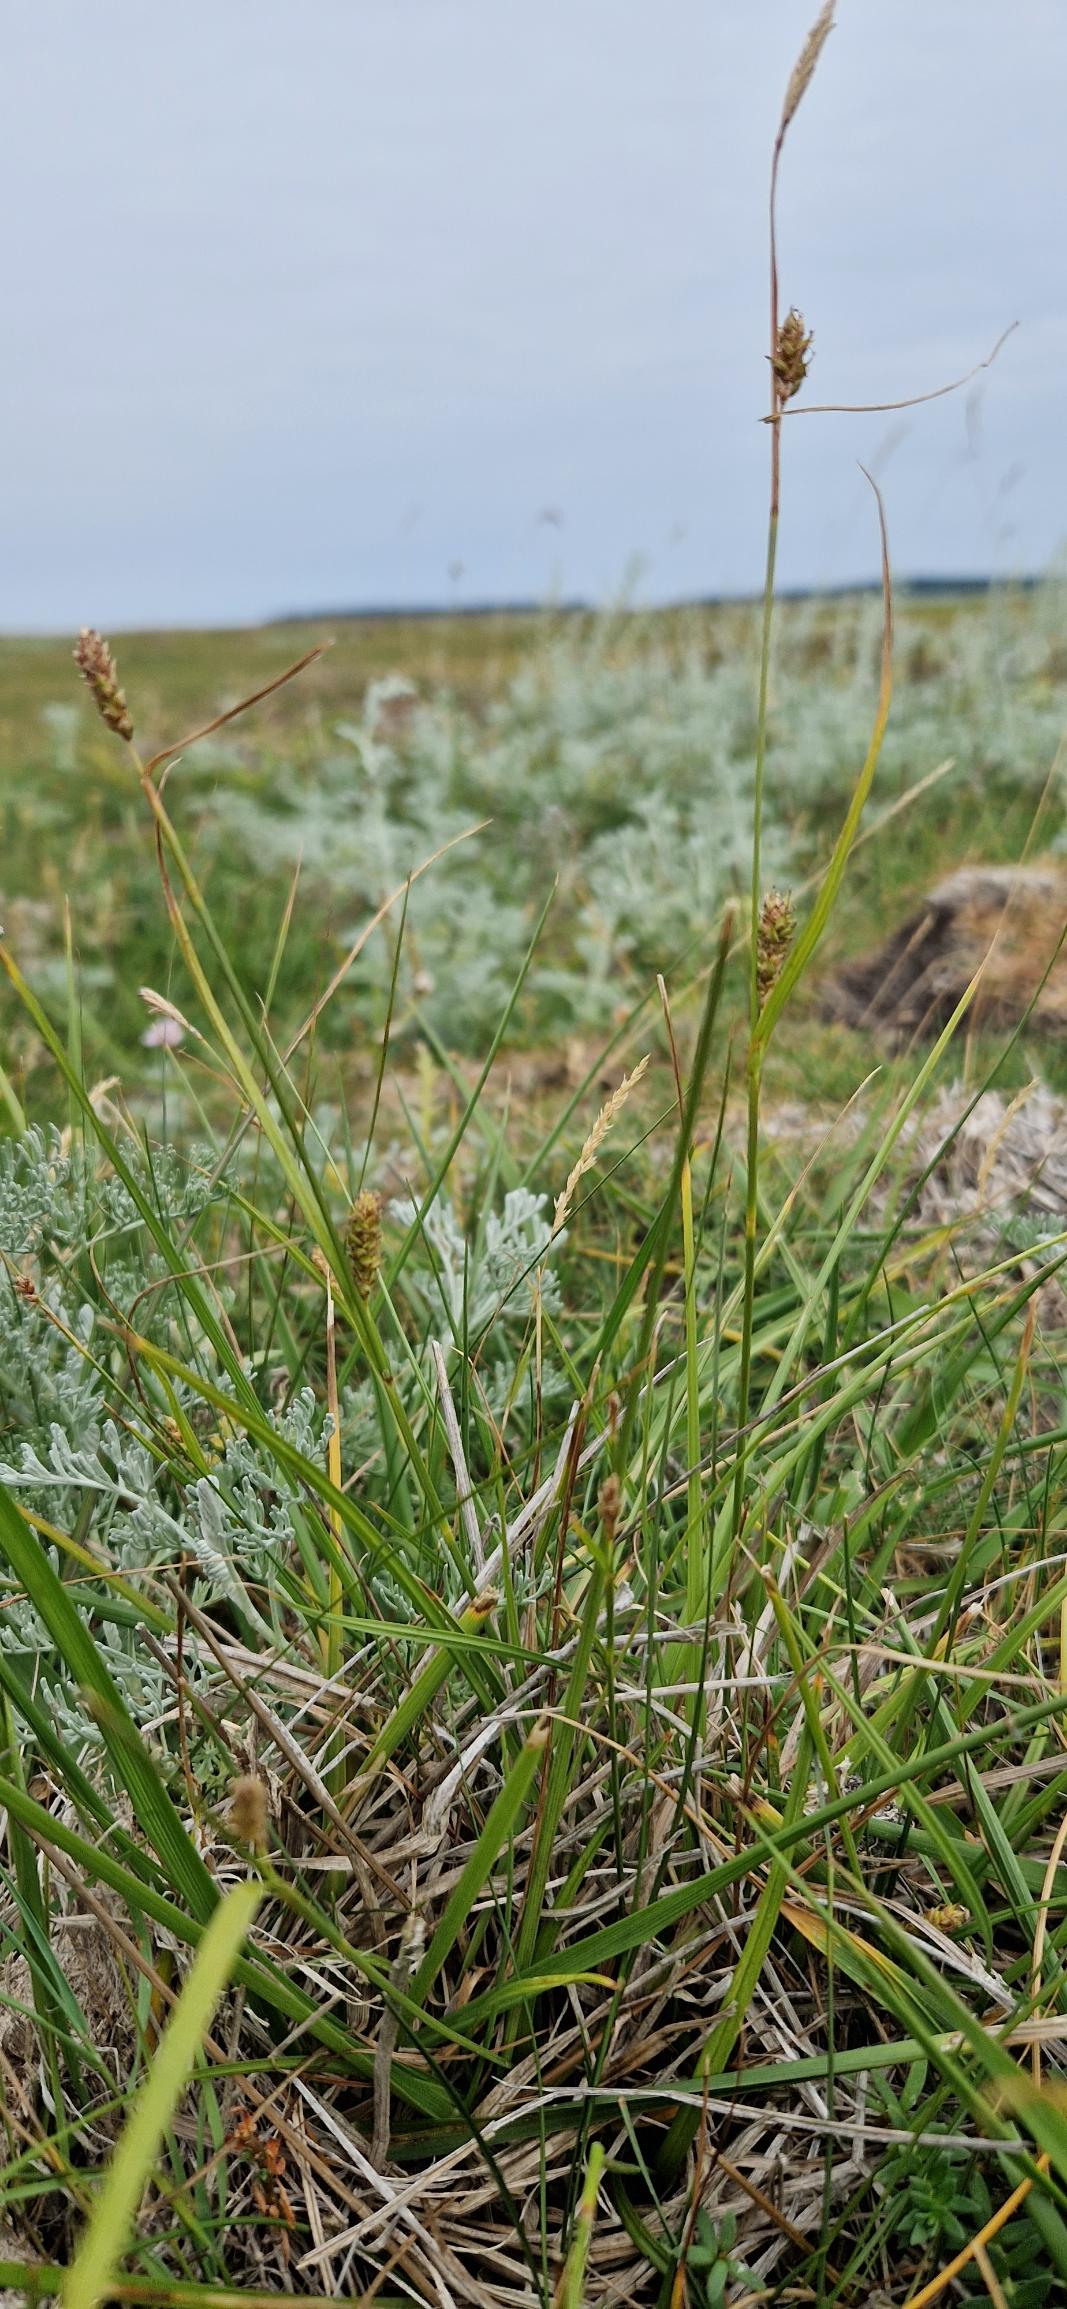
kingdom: Plantae
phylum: Tracheophyta
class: Liliopsida
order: Poales
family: Cyperaceae
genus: Carex
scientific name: Carex distans
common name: Fjernakset star
